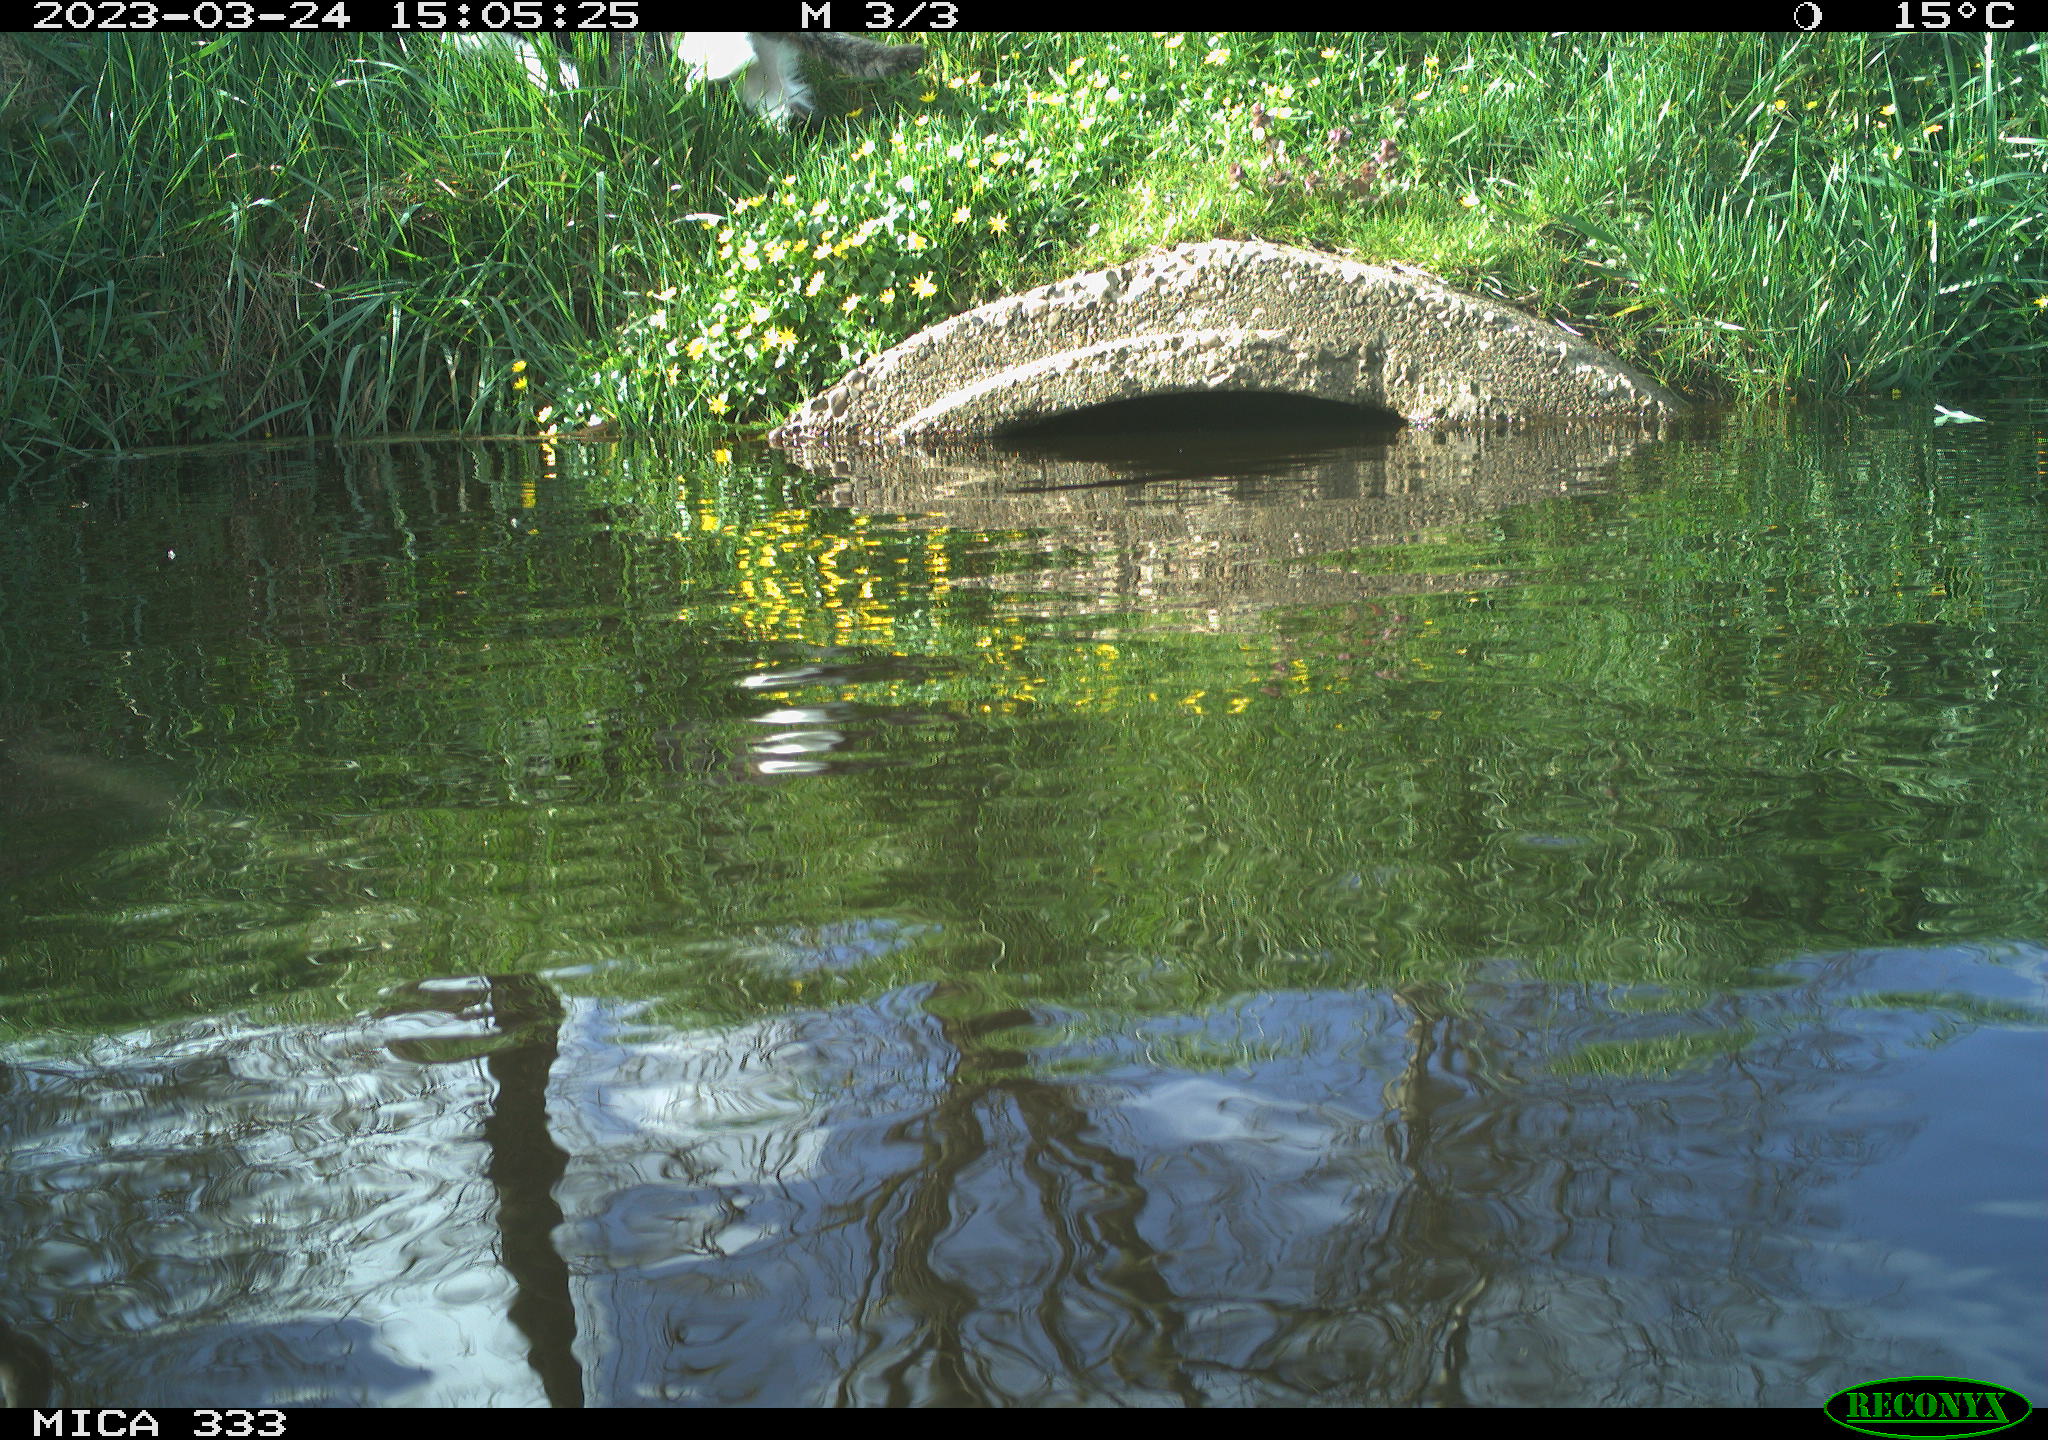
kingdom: Animalia
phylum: Chordata
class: Mammalia
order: Carnivora
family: Felidae
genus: Felis
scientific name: Felis catus
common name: Domestic cat
